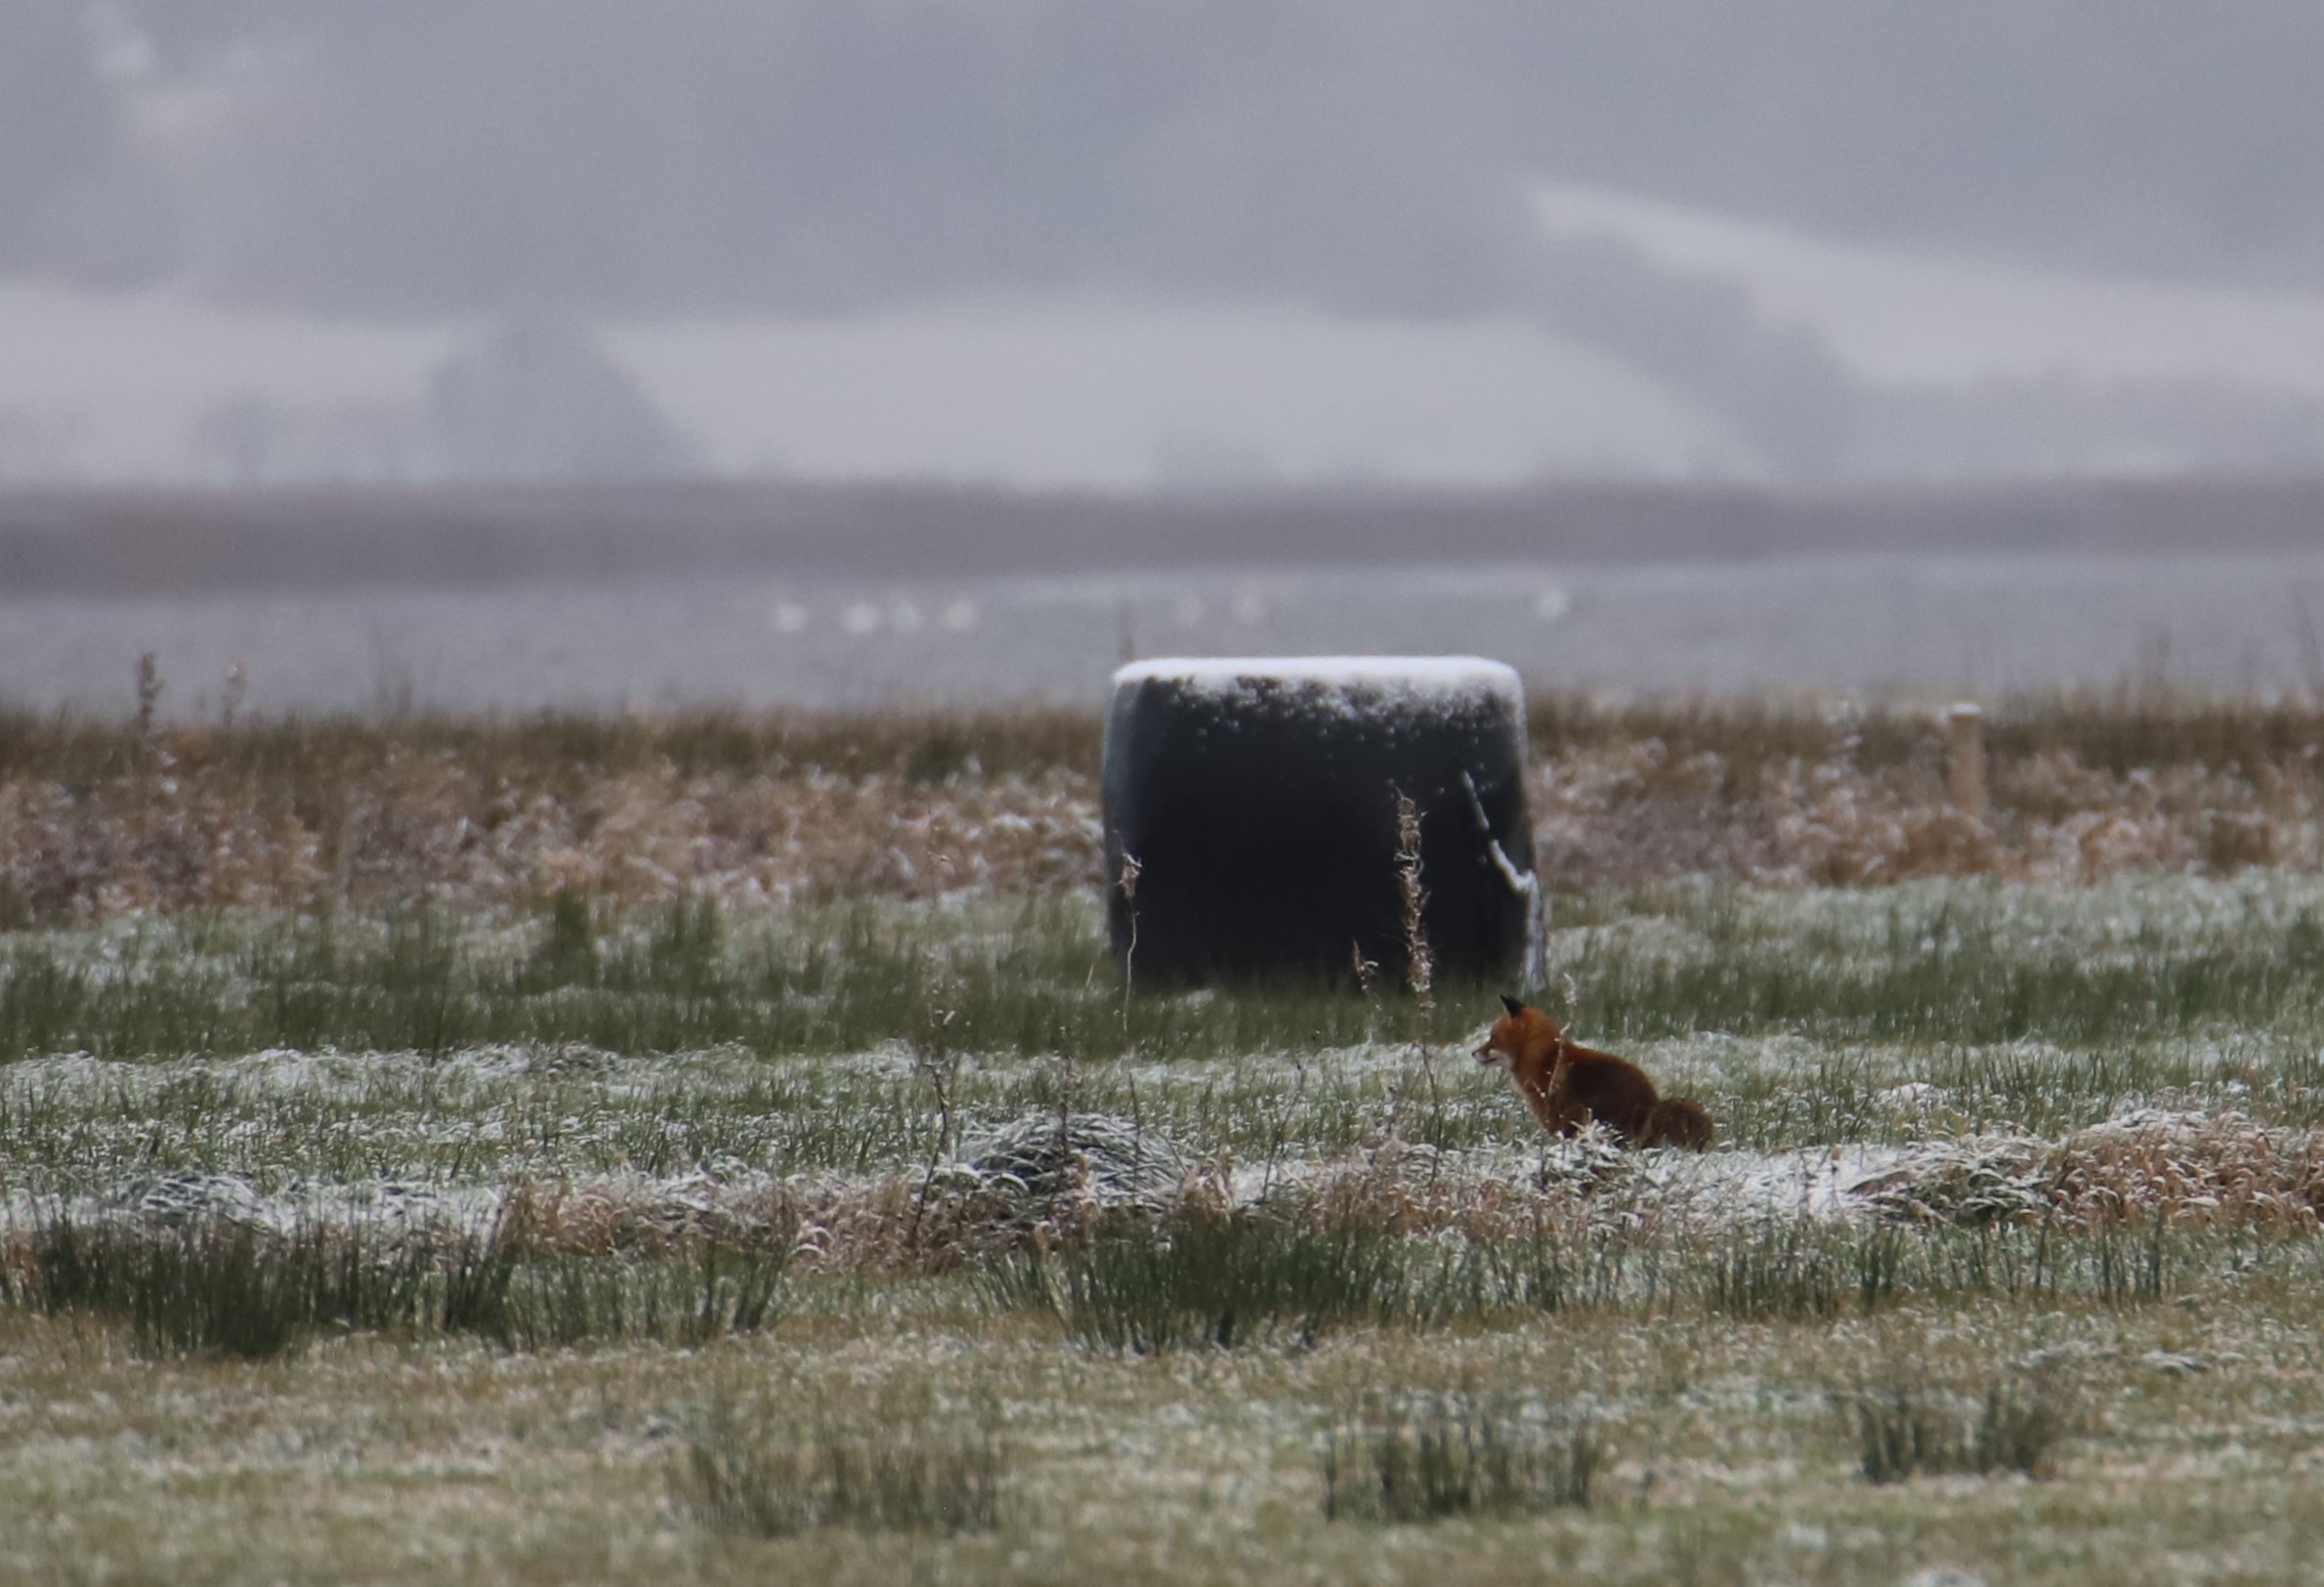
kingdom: Animalia
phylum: Chordata
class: Mammalia
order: Carnivora
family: Canidae
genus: Vulpes
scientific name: Vulpes vulpes
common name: Ræv
